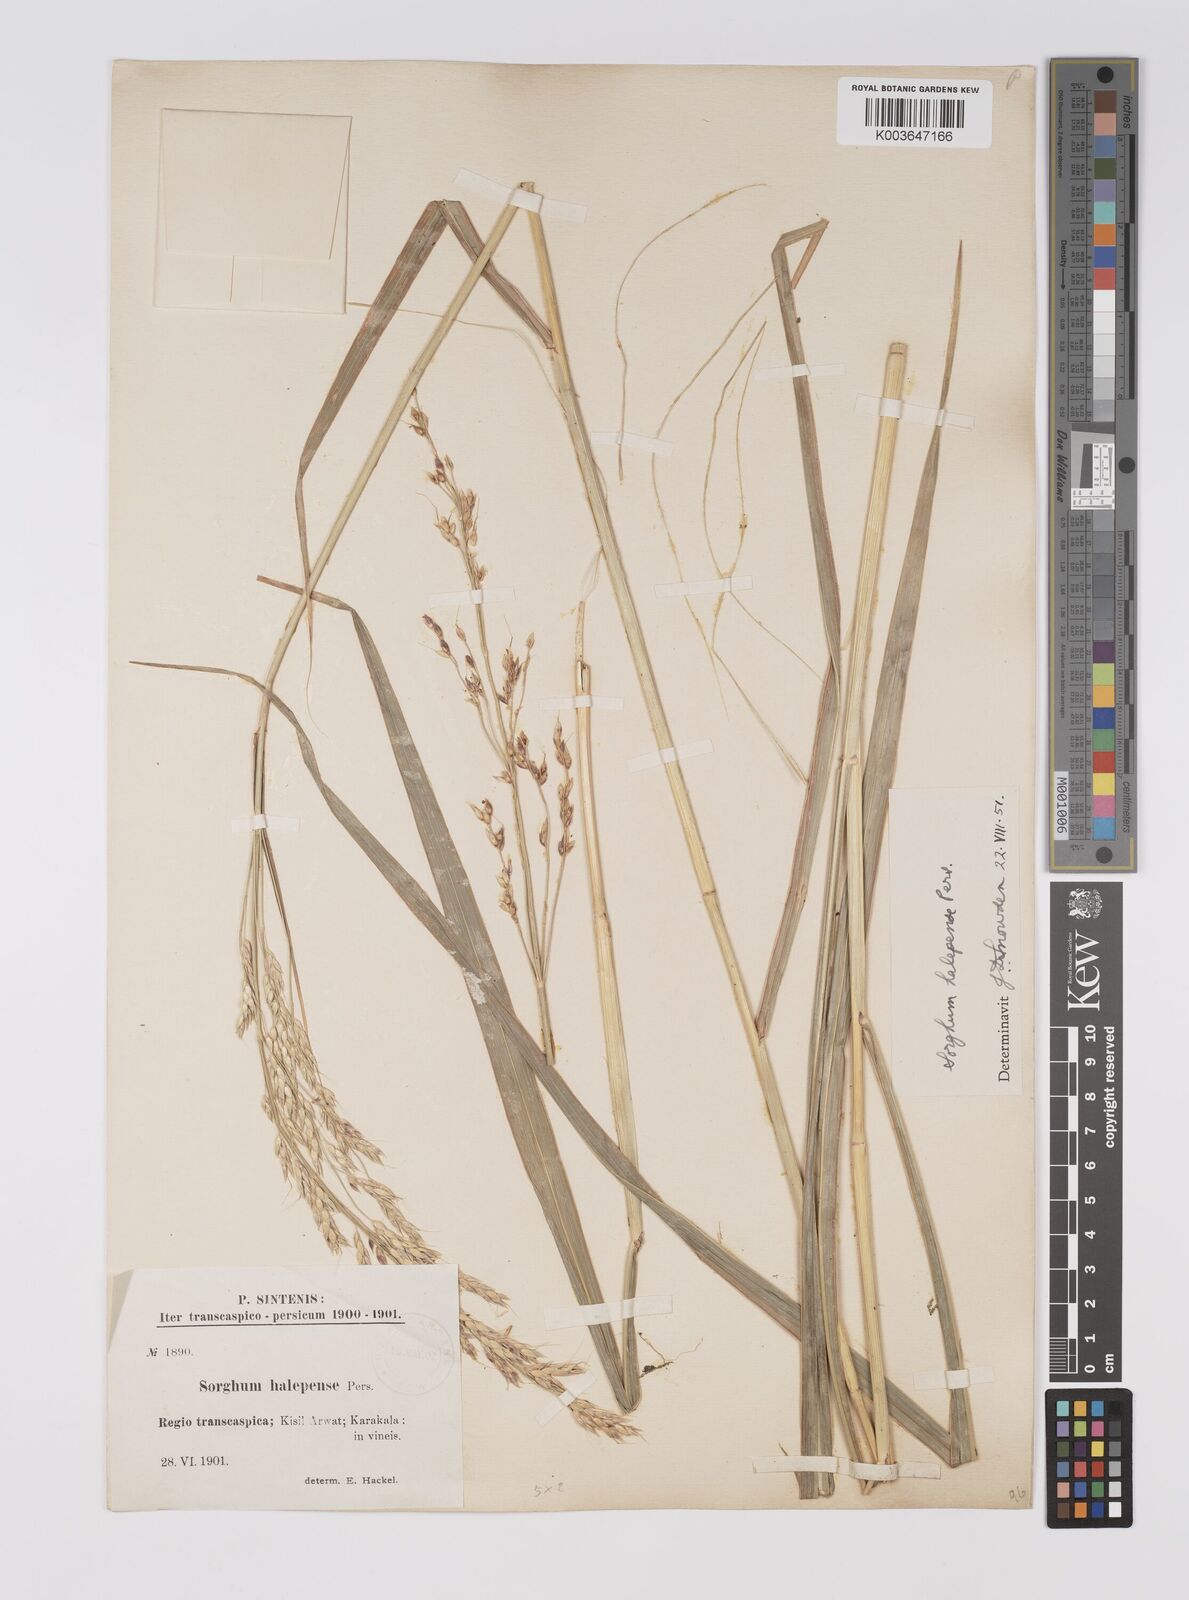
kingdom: Plantae
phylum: Tracheophyta
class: Liliopsida
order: Poales
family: Poaceae
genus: Sorghum
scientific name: Sorghum halepense
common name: Johnson-grass
